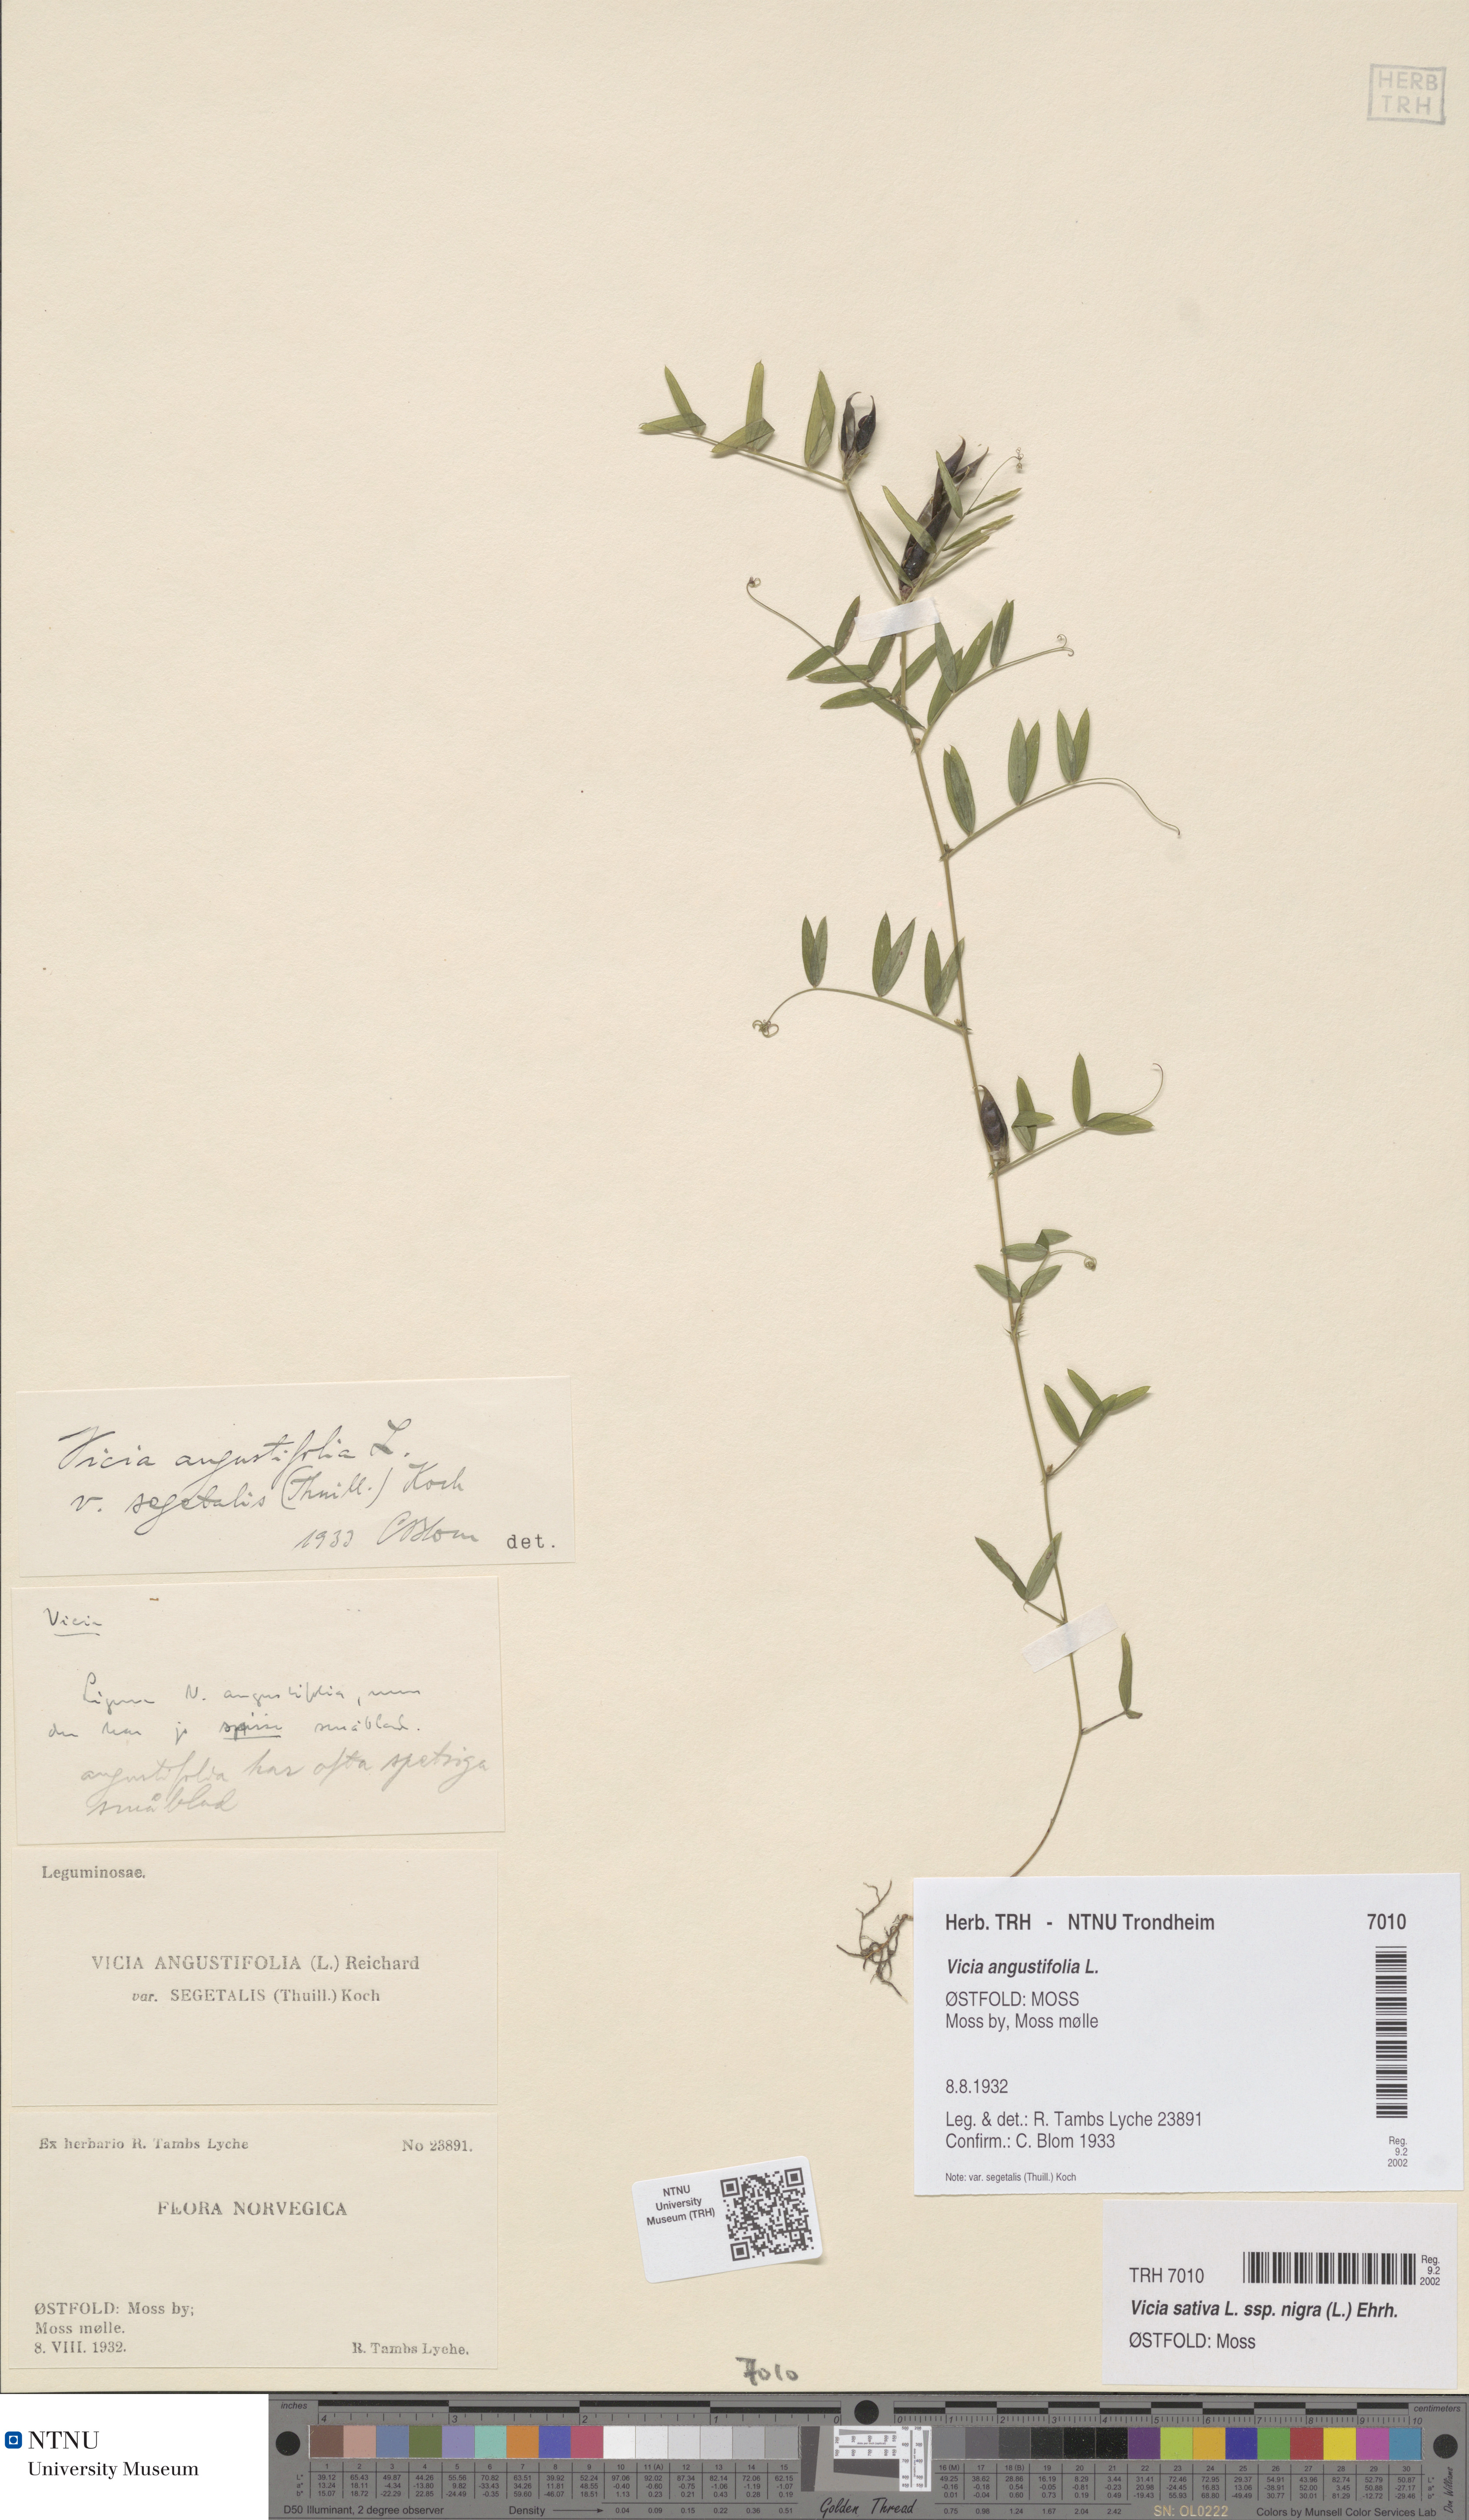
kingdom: Plantae
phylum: Tracheophyta
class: Magnoliopsida
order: Fabales
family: Fabaceae
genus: Vicia
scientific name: Vicia sativa
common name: Garden vetch
